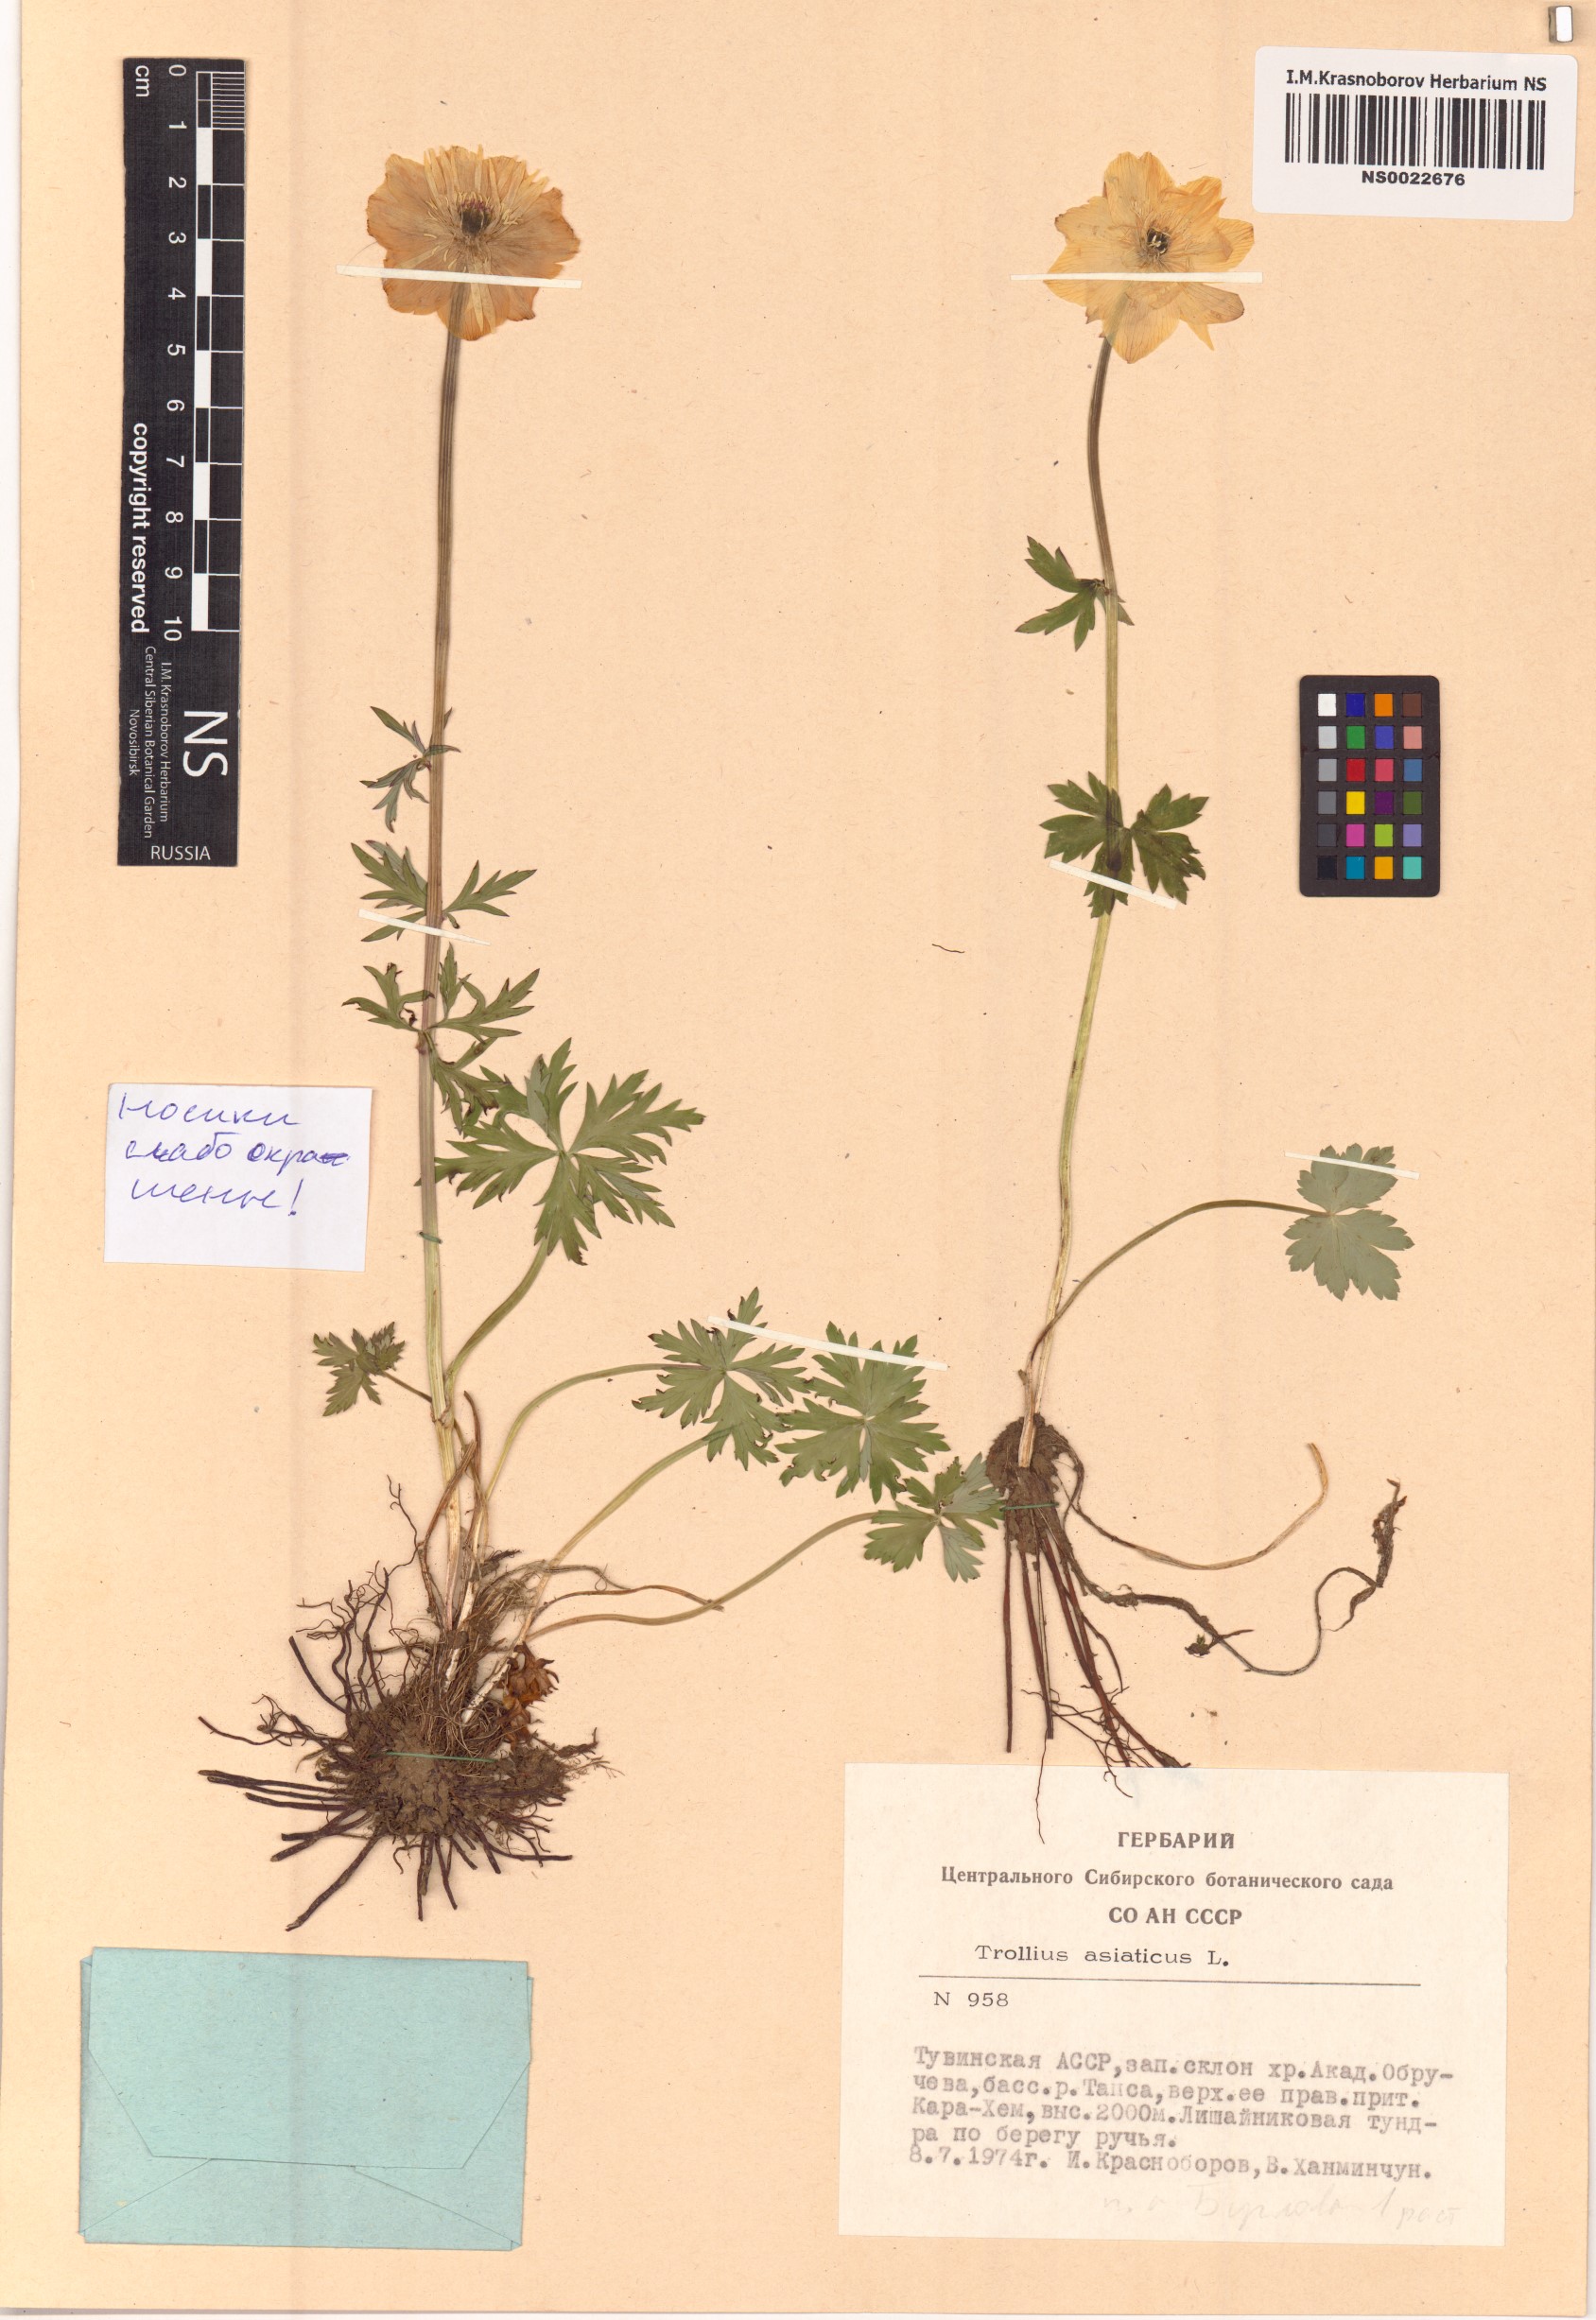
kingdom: Plantae
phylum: Tracheophyta
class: Magnoliopsida
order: Ranunculales
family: Ranunculaceae
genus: Trollius
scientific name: Trollius asiaticus
